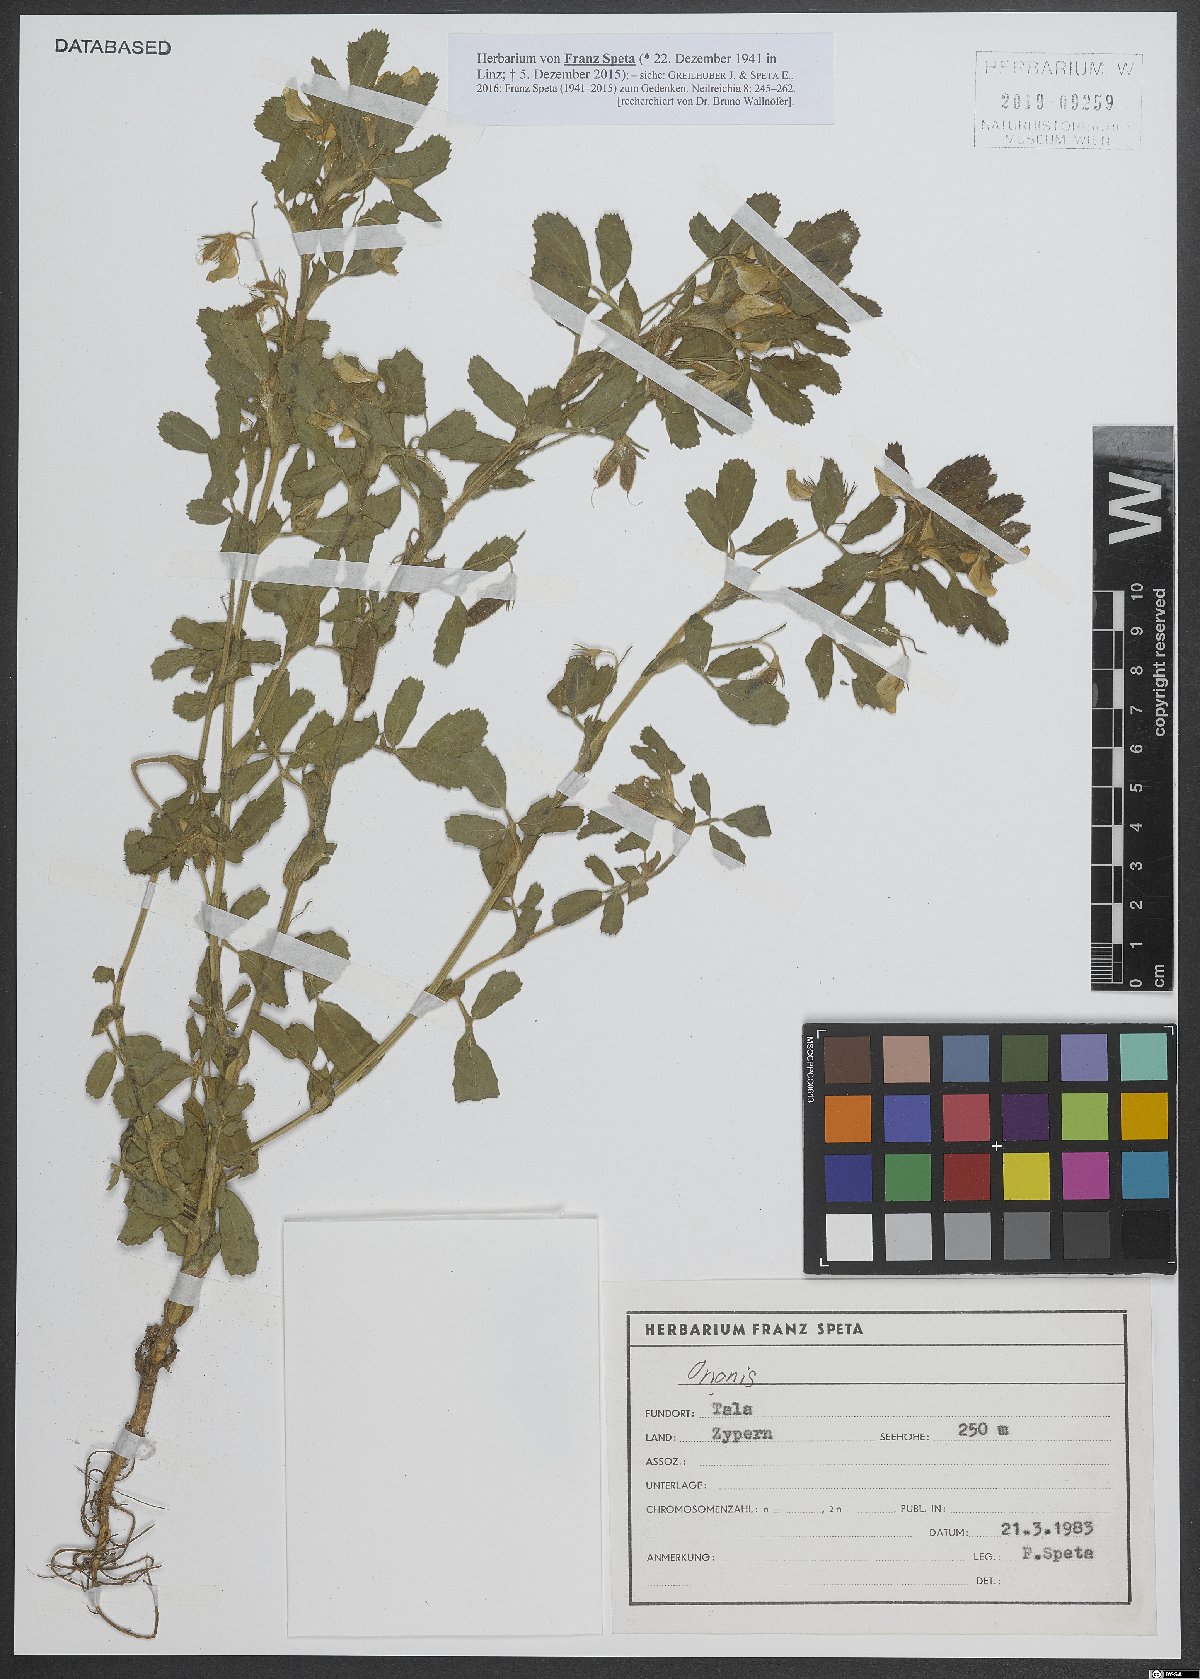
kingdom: Plantae
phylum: Tracheophyta
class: Magnoliopsida
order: Fabales
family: Fabaceae
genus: Ononis
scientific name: Ononis
